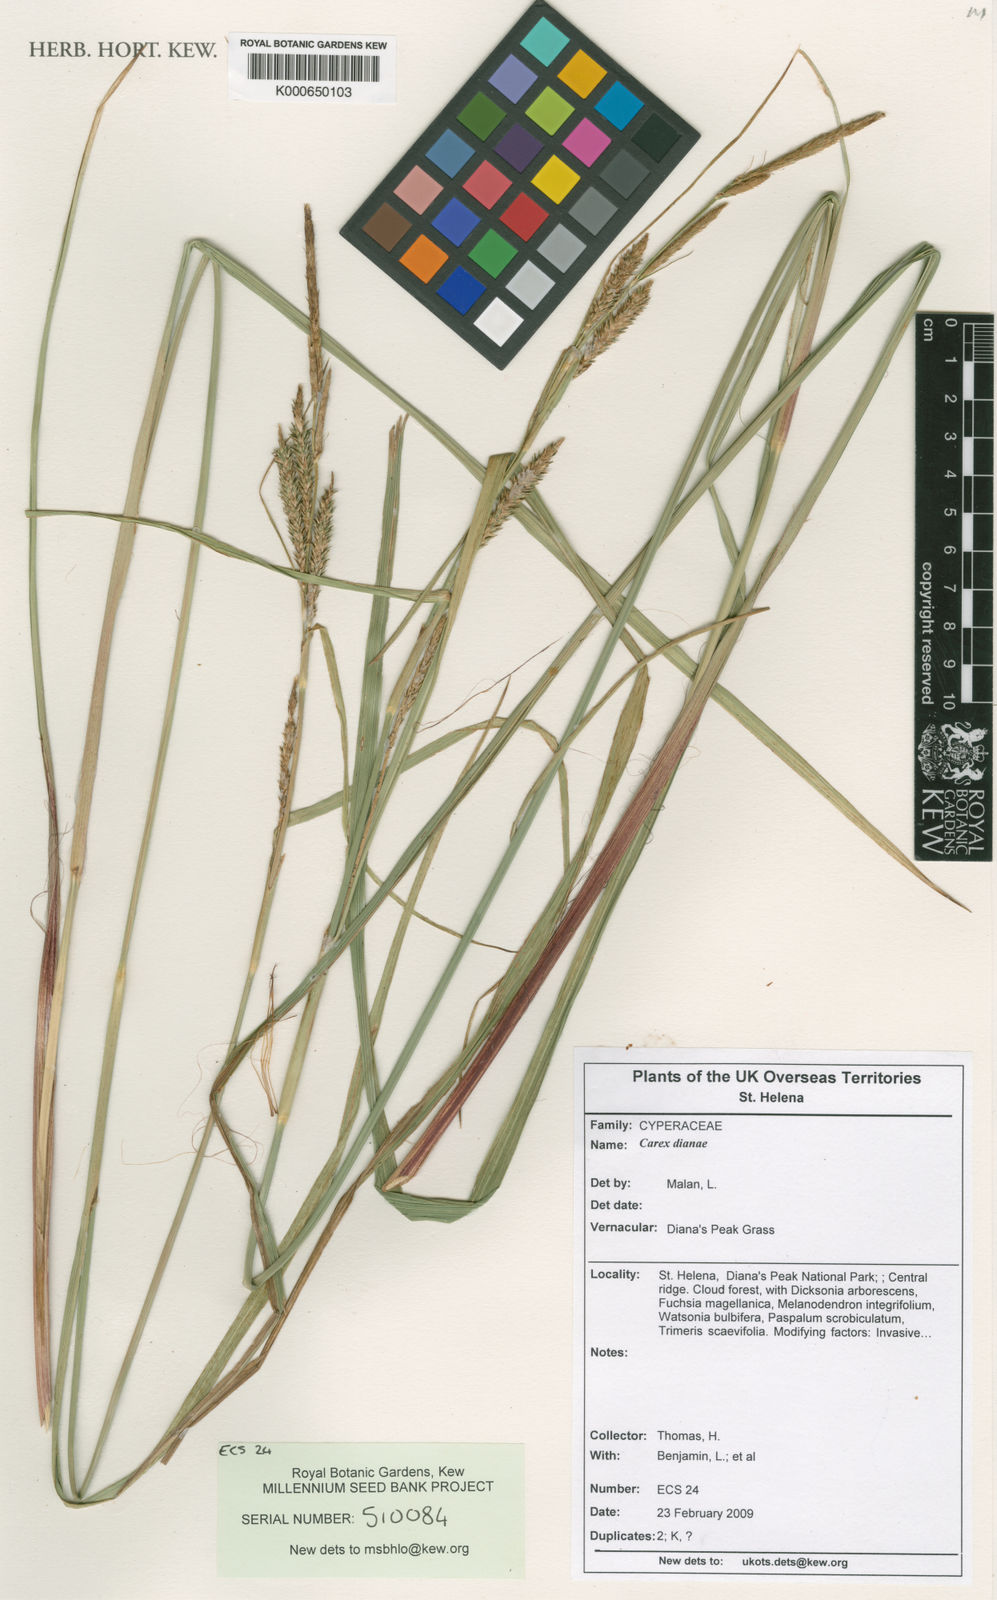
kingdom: Plantae
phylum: Tracheophyta
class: Liliopsida
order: Poales
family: Cyperaceae
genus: Carex
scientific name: Carex dianae
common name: Diana's peak grass
